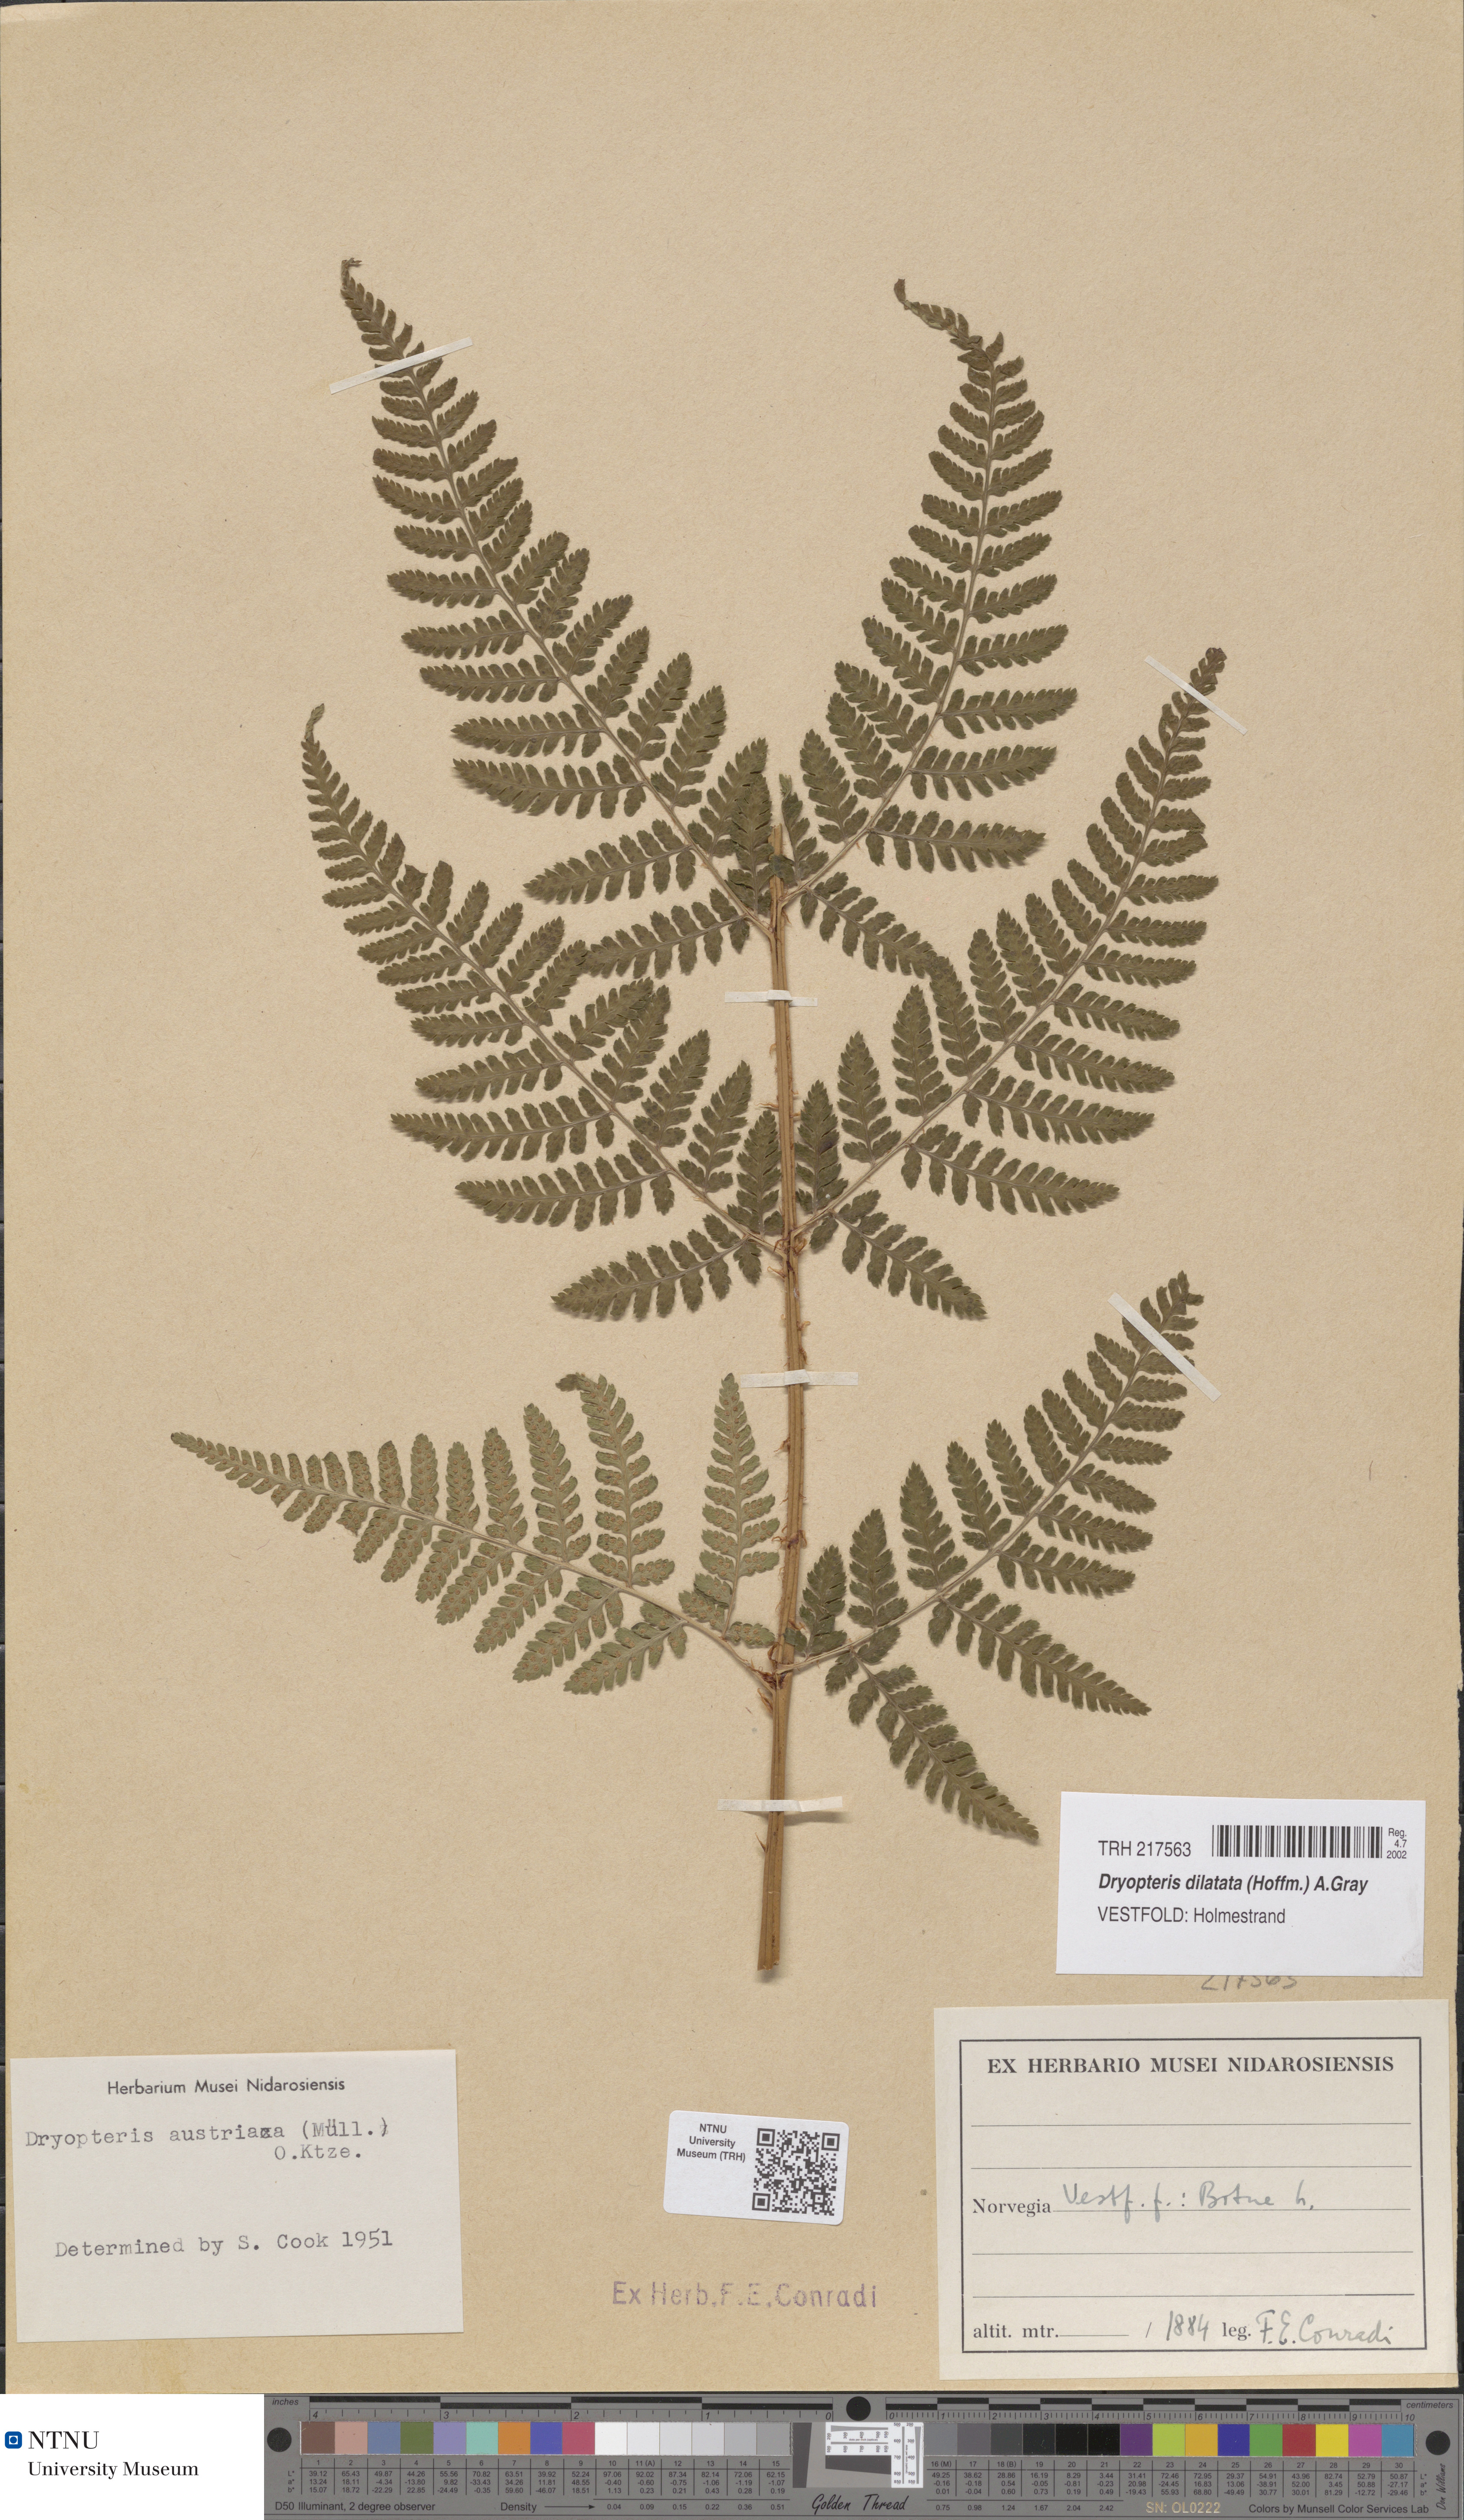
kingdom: Plantae
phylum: Tracheophyta
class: Polypodiopsida
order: Polypodiales
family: Dryopteridaceae
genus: Dryopteris
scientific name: Dryopteris dilatata
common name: Broad buckler-fern
